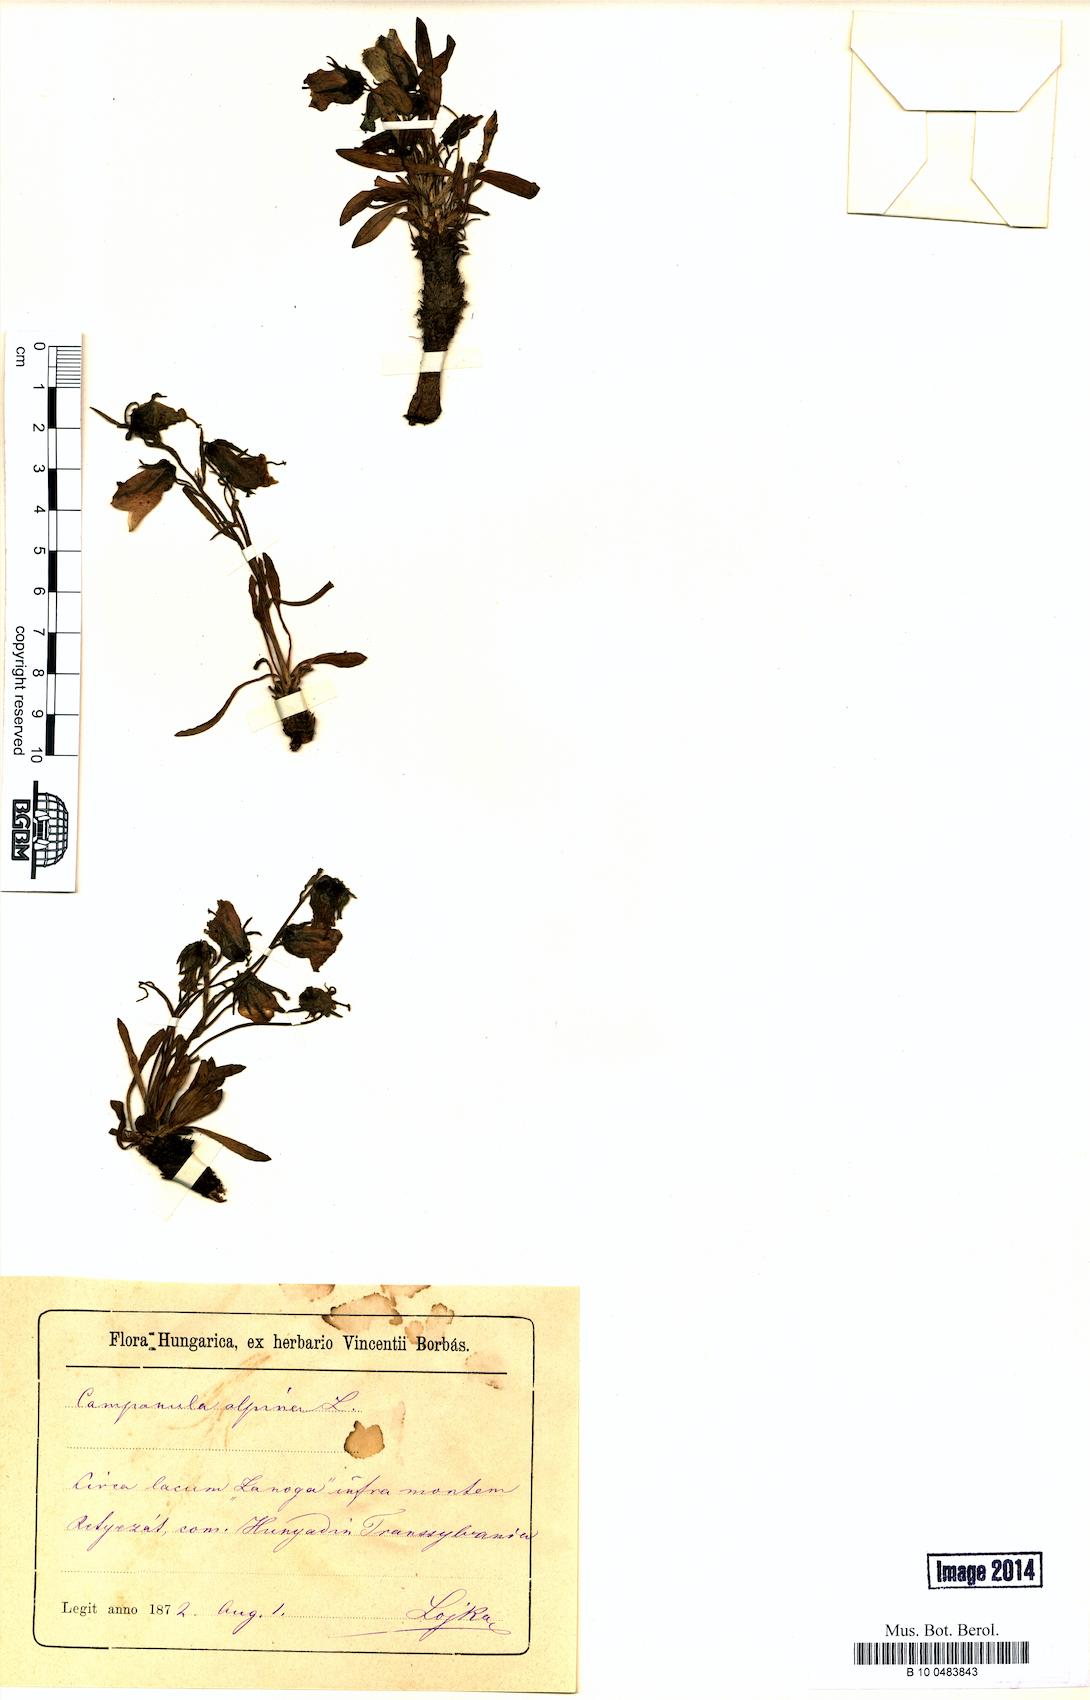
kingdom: Plantae
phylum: Tracheophyta
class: Magnoliopsida
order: Asterales
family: Campanulaceae
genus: Campanula
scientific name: Campanula alpina
